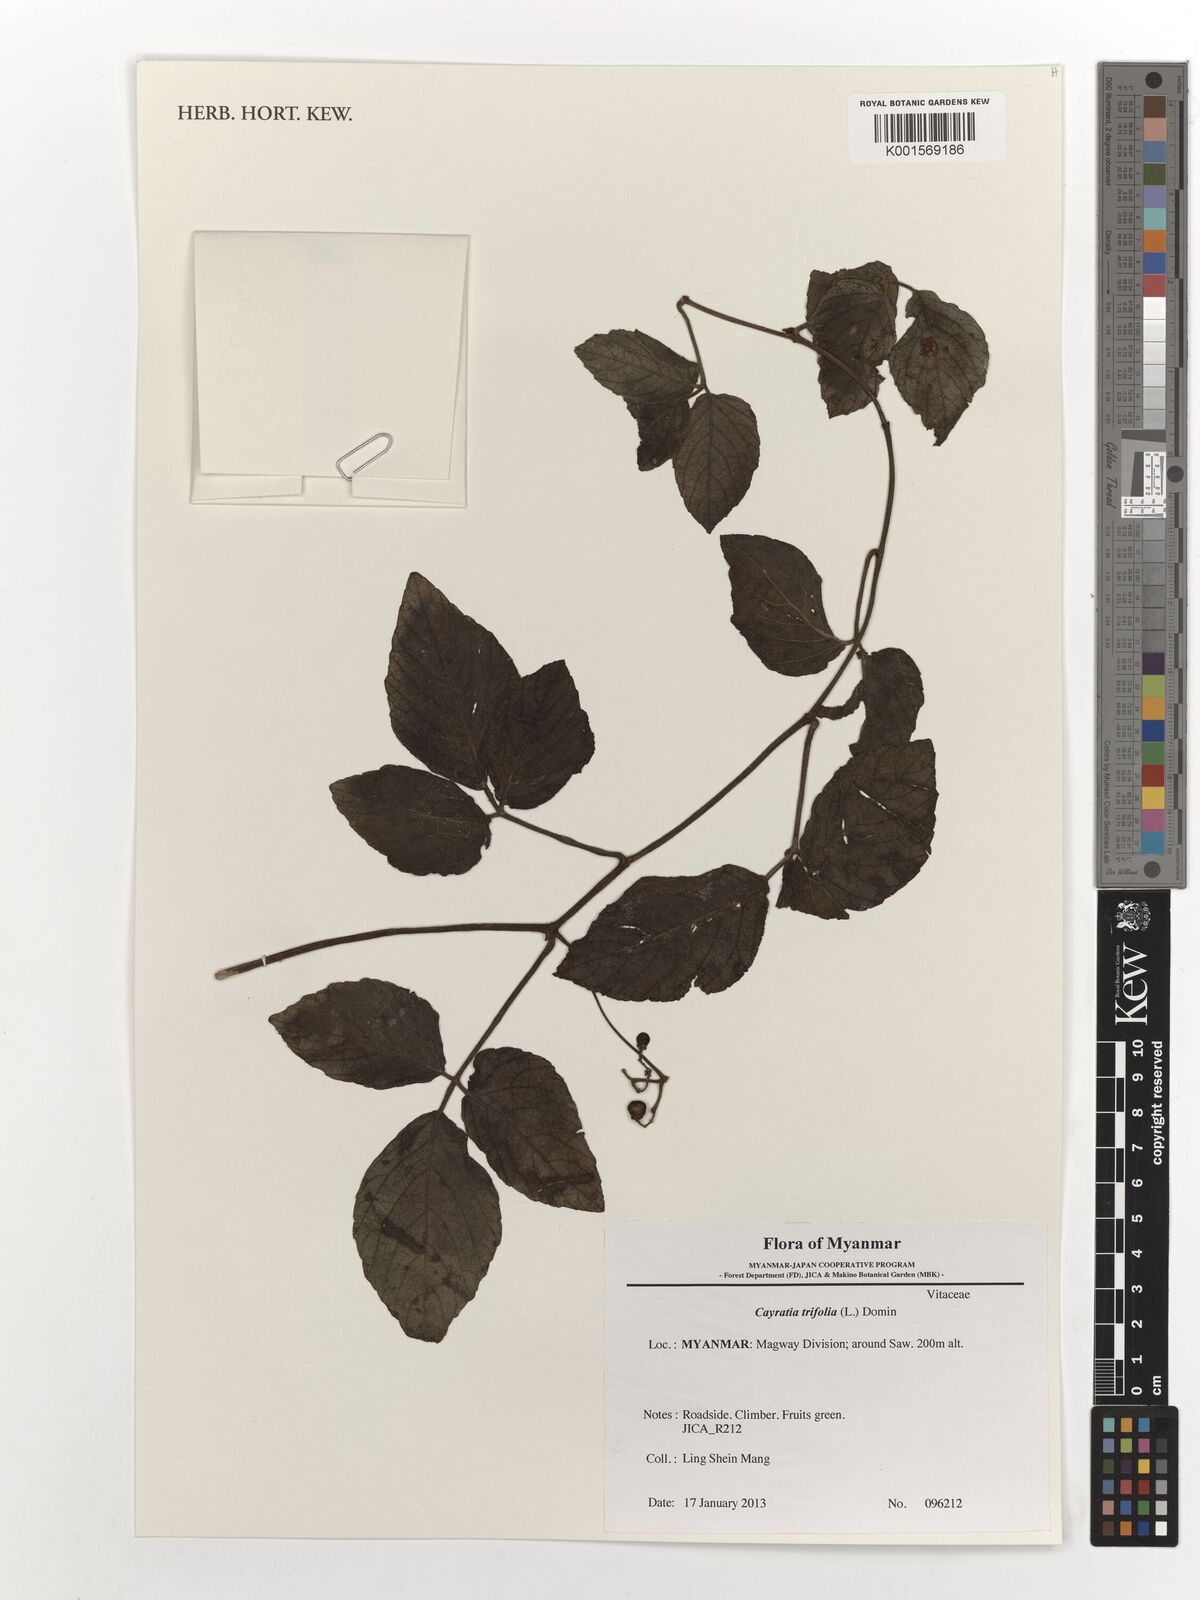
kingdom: Plantae
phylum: Tracheophyta
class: Magnoliopsida
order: Vitales
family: Vitaceae
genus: Causonis
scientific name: Causonis trifolia
